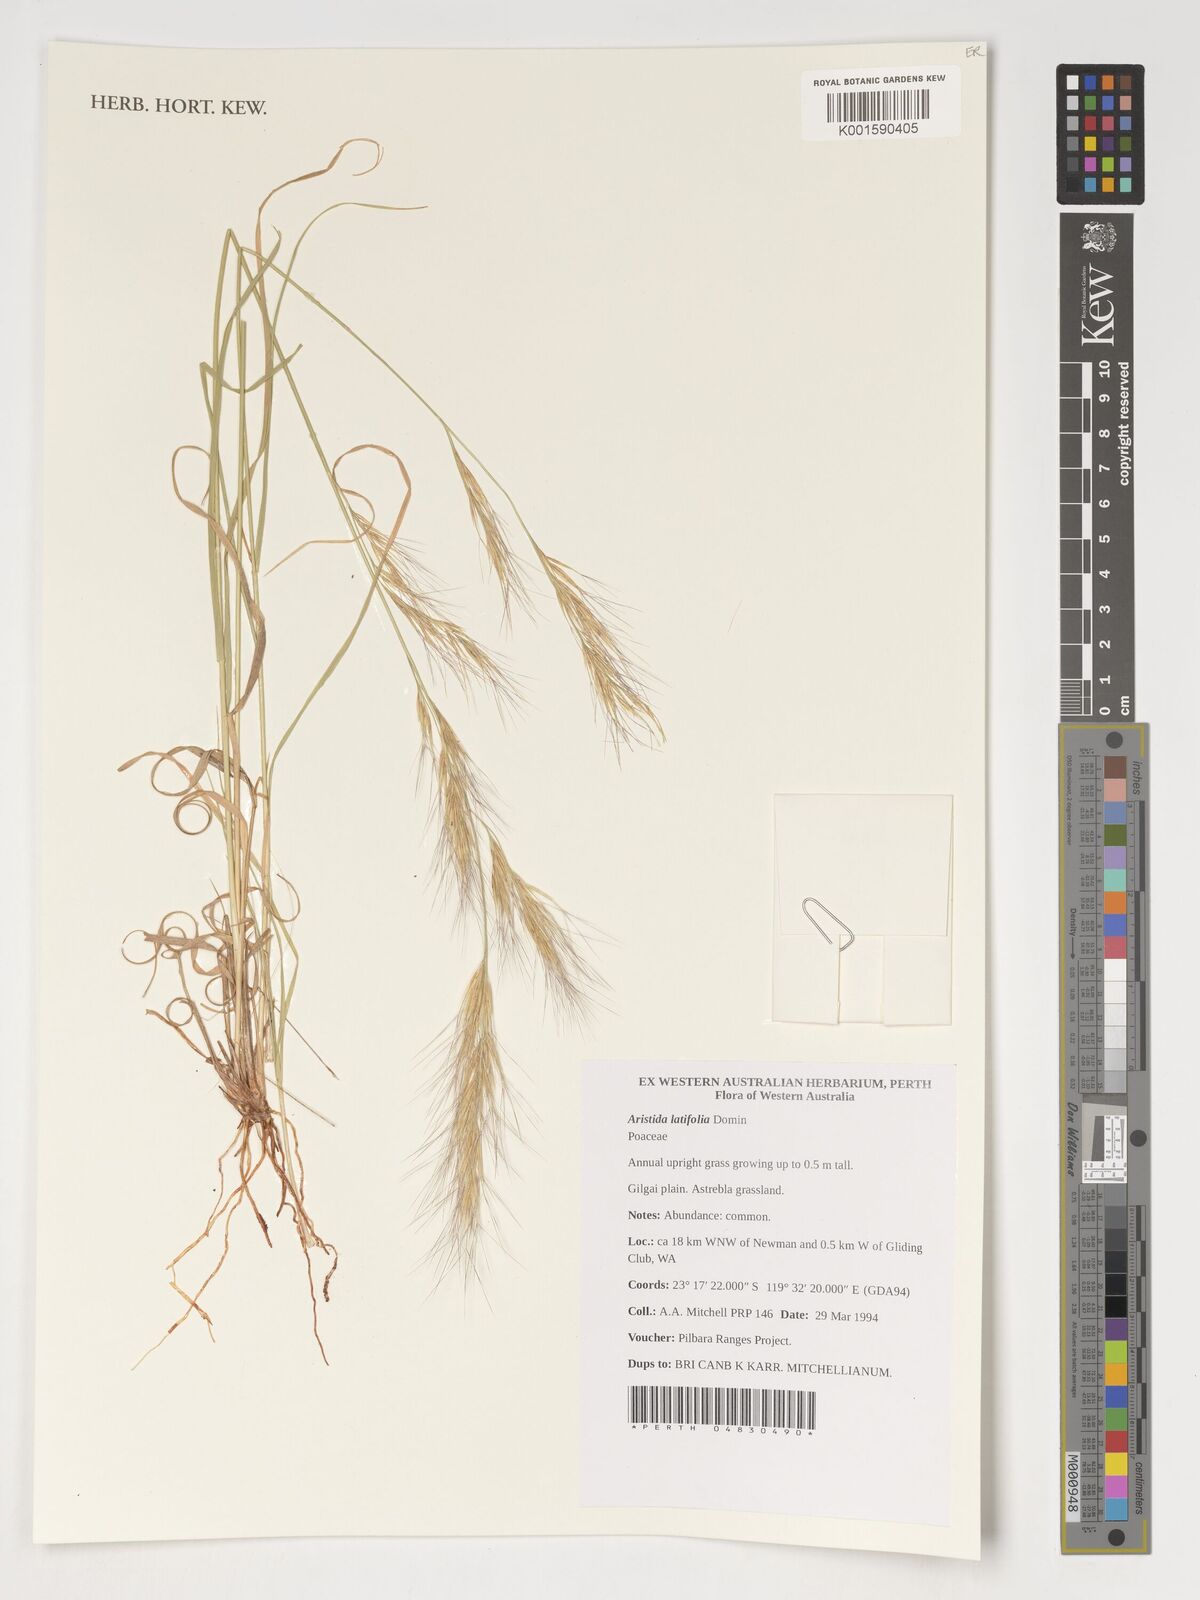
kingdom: Plantae
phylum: Tracheophyta
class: Liliopsida
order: Poales
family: Poaceae
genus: Aristida
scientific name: Aristida latifolia
